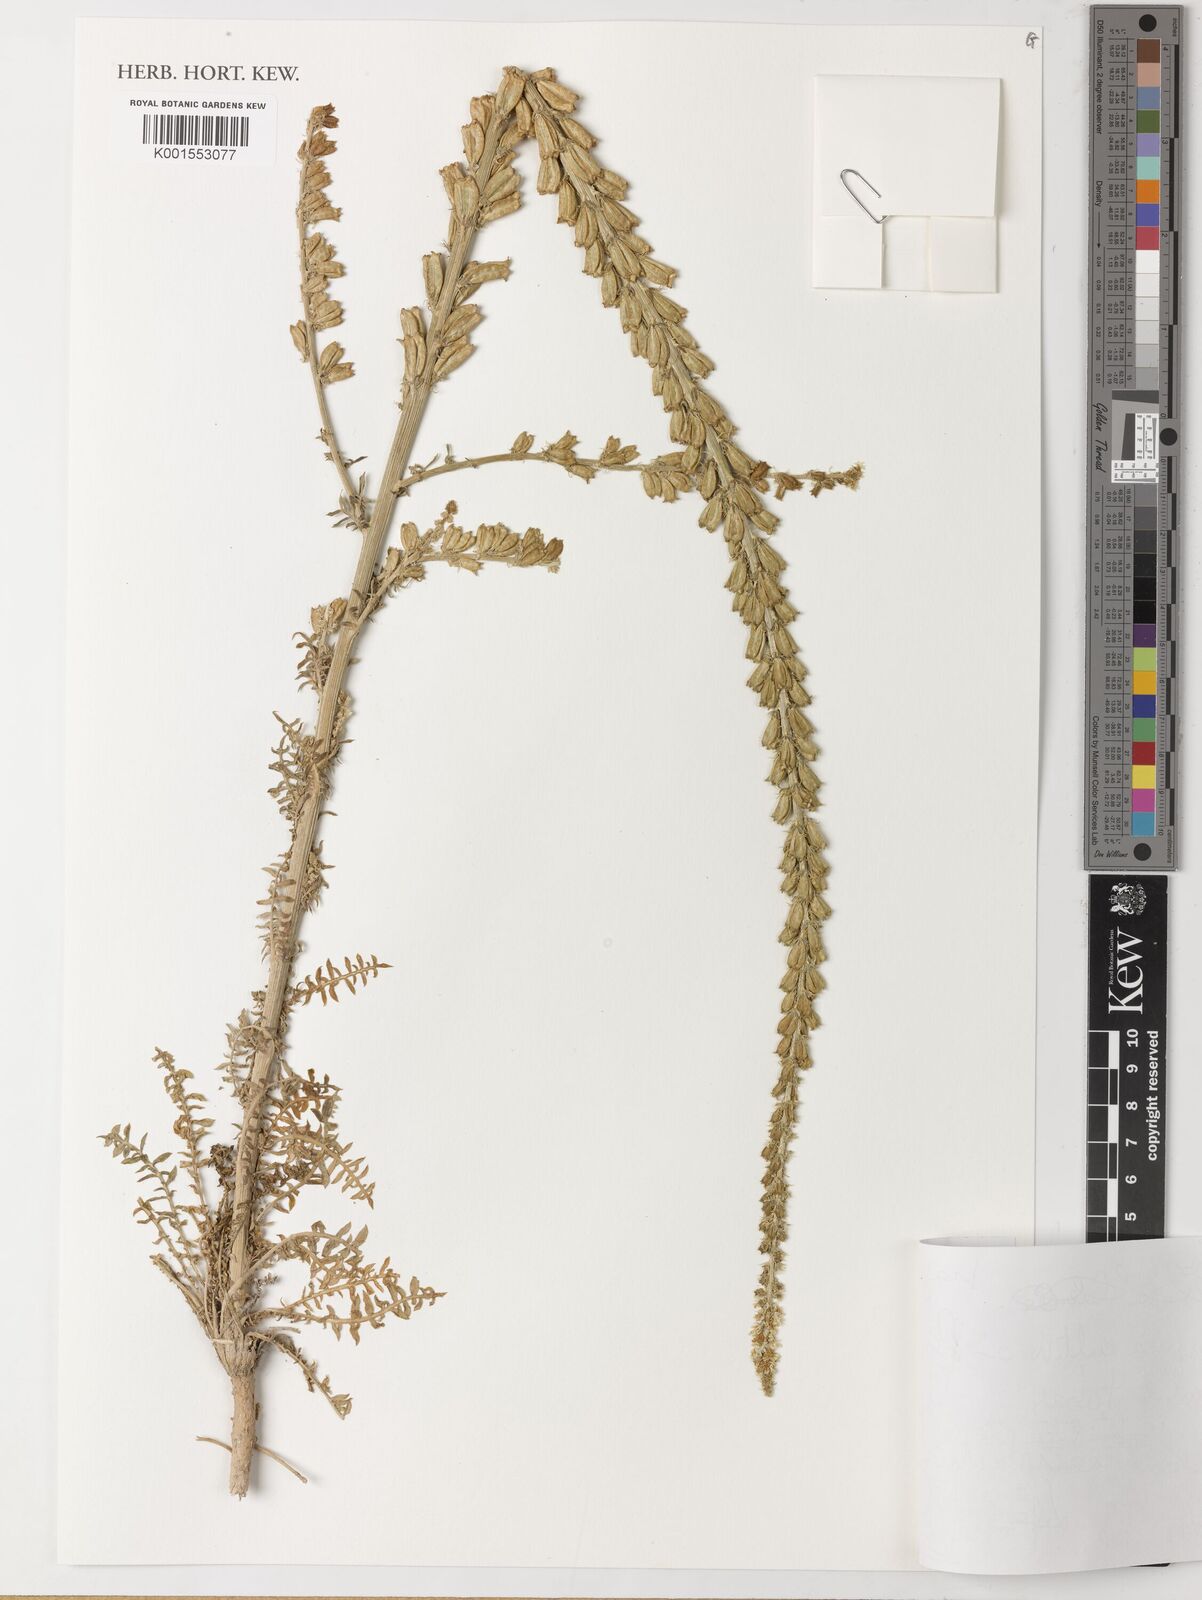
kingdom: Plantae
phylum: Tracheophyta
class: Magnoliopsida
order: Brassicales
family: Resedaceae
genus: Reseda
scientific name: Reseda
